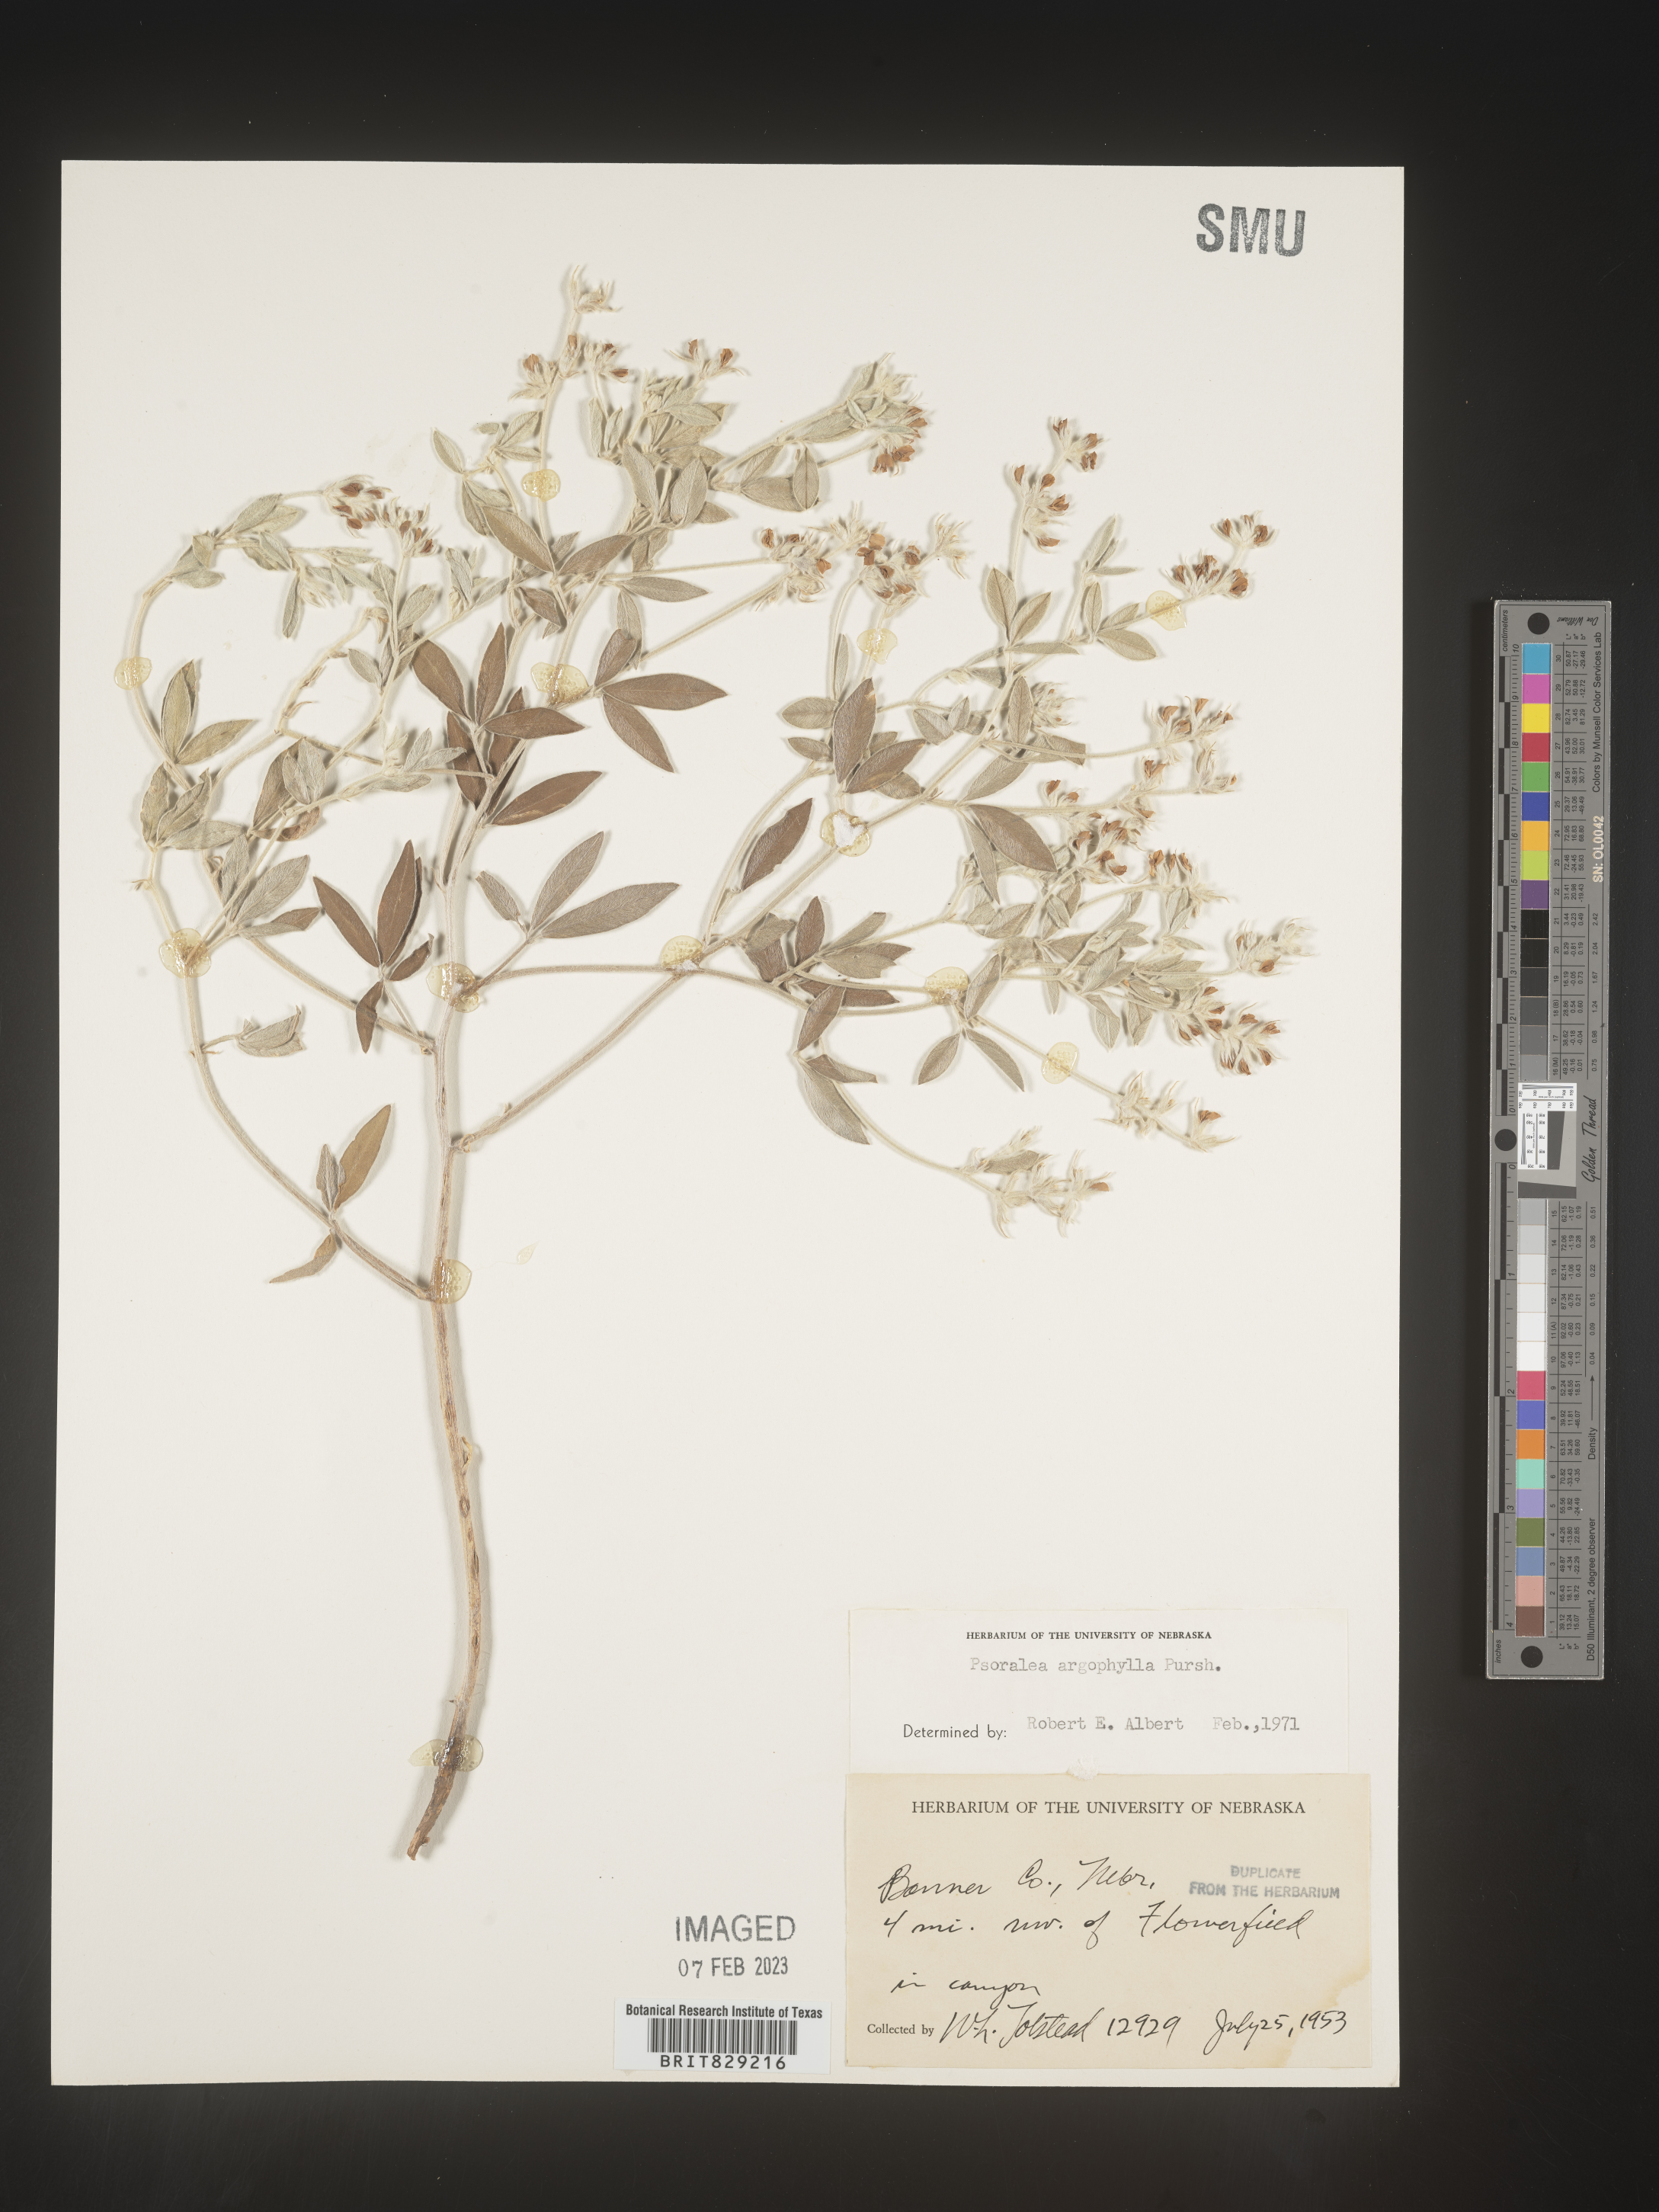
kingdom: Plantae
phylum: Tracheophyta
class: Magnoliopsida
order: Fabales
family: Fabaceae
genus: Pediomelum
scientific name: Pediomelum argophyllum
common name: Silver-leaved indian breadroot
